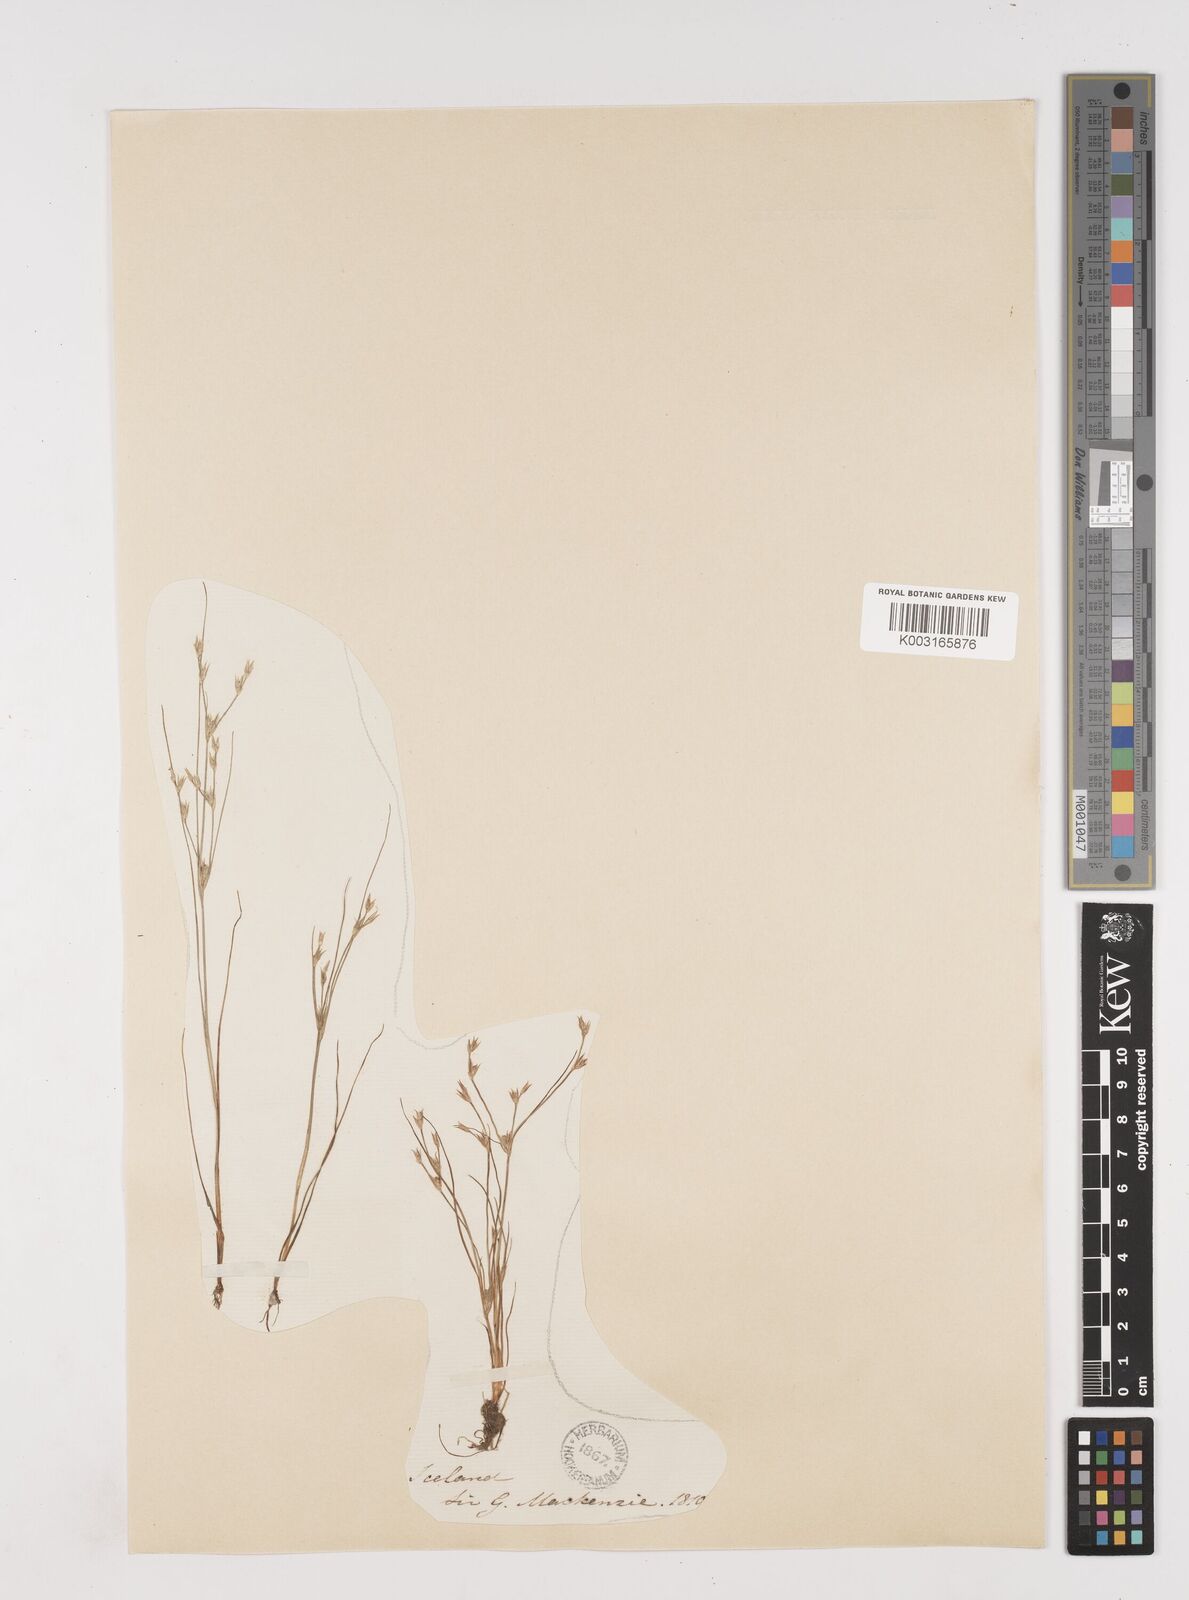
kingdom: Plantae
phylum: Tracheophyta
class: Liliopsida
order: Poales
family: Juncaceae
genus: Juncus
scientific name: Juncus bufonius
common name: Toad rush
